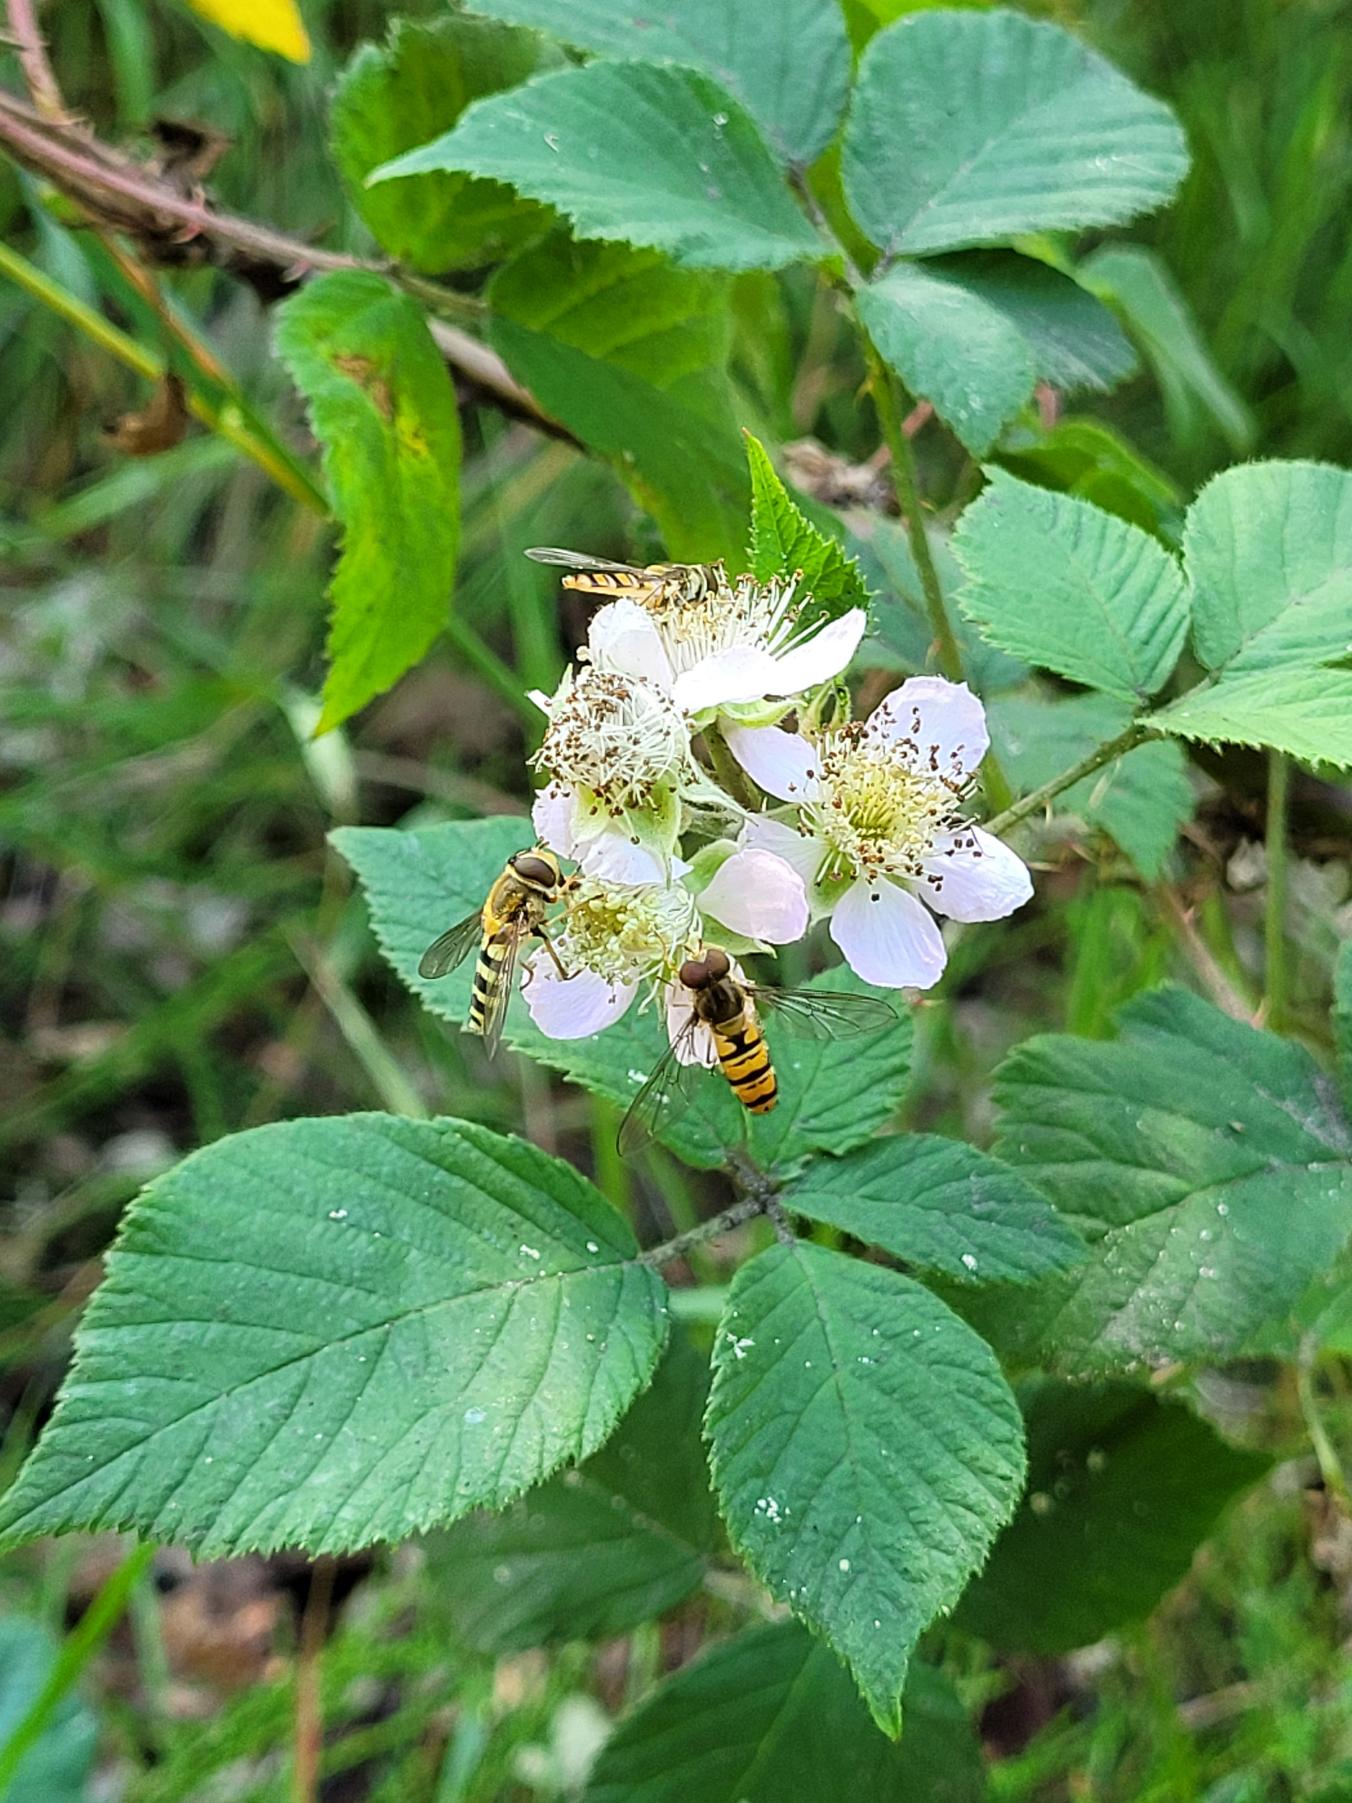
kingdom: Animalia
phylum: Arthropoda
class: Insecta
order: Diptera
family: Syrphidae
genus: Episyrphus
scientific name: Episyrphus balteatus
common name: Dobbeltbåndet svirreflue
